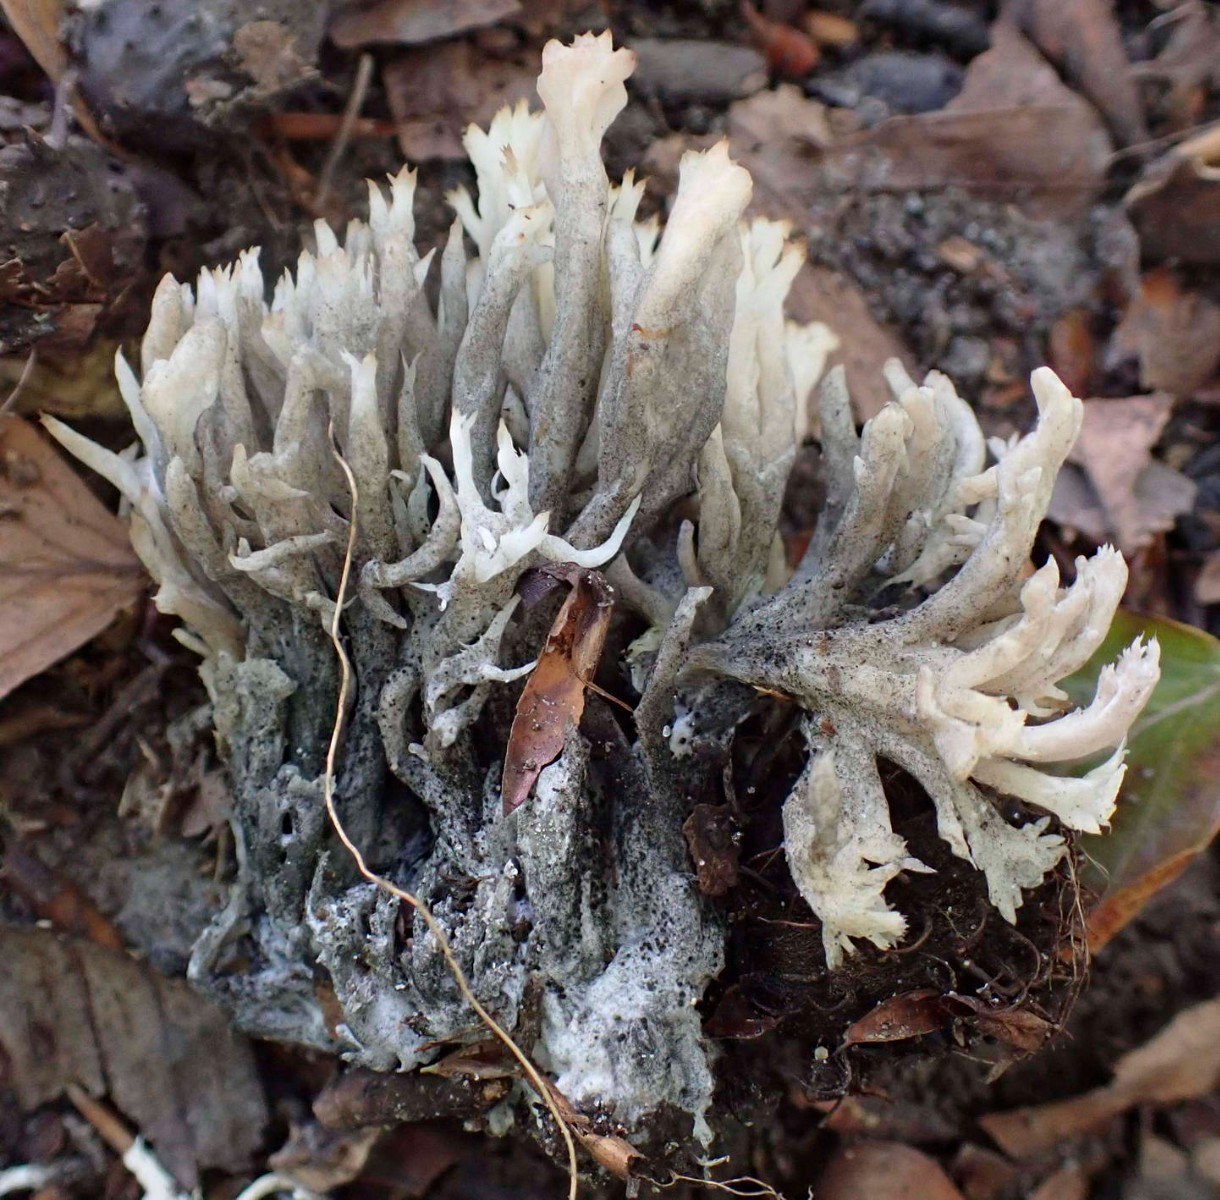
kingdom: Fungi
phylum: Ascomycota
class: Sordariomycetes
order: Sordariales
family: Helminthosphaeriaceae
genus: Helminthosphaeria
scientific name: Helminthosphaeria clavariarum
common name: trold-svampesnyltekerne
